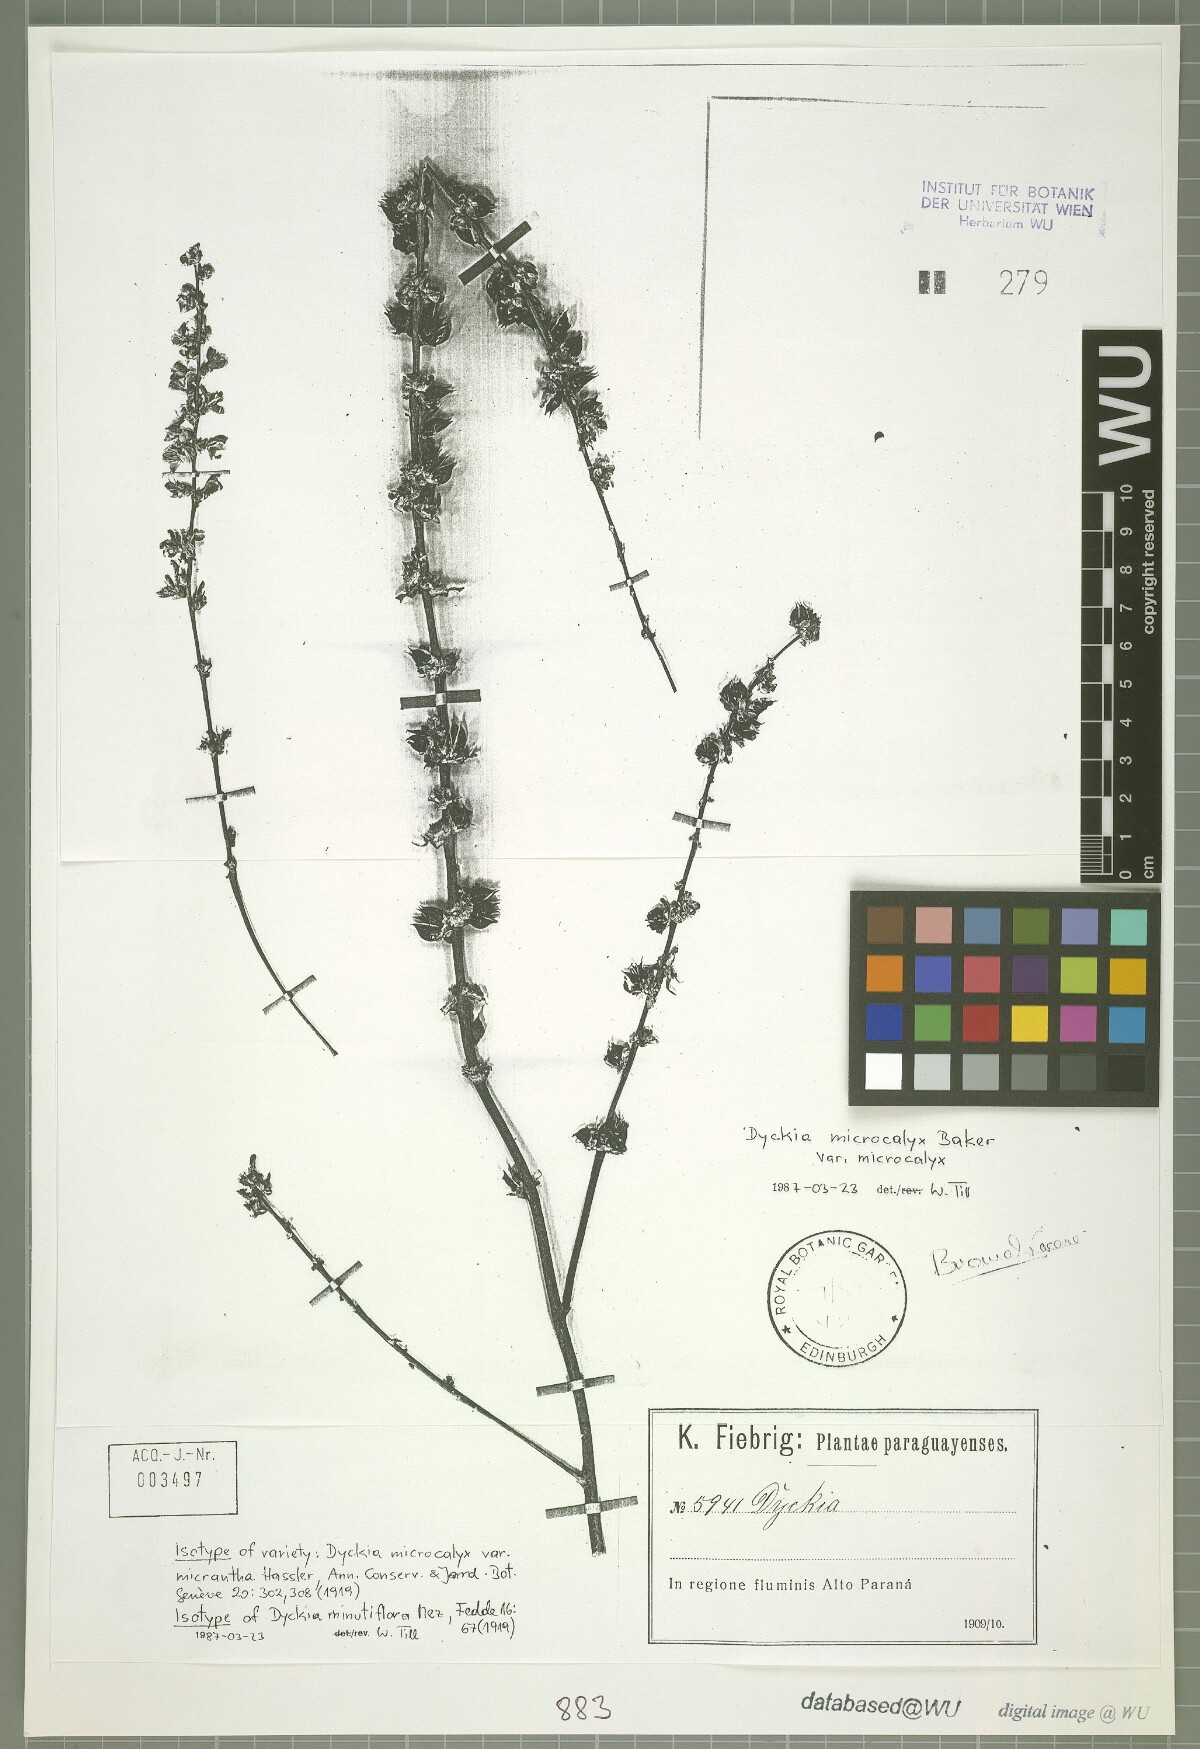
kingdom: Plantae
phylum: Tracheophyta
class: Liliopsida
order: Poales
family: Bromeliaceae
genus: Dyckia
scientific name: Dyckia microcalyx
